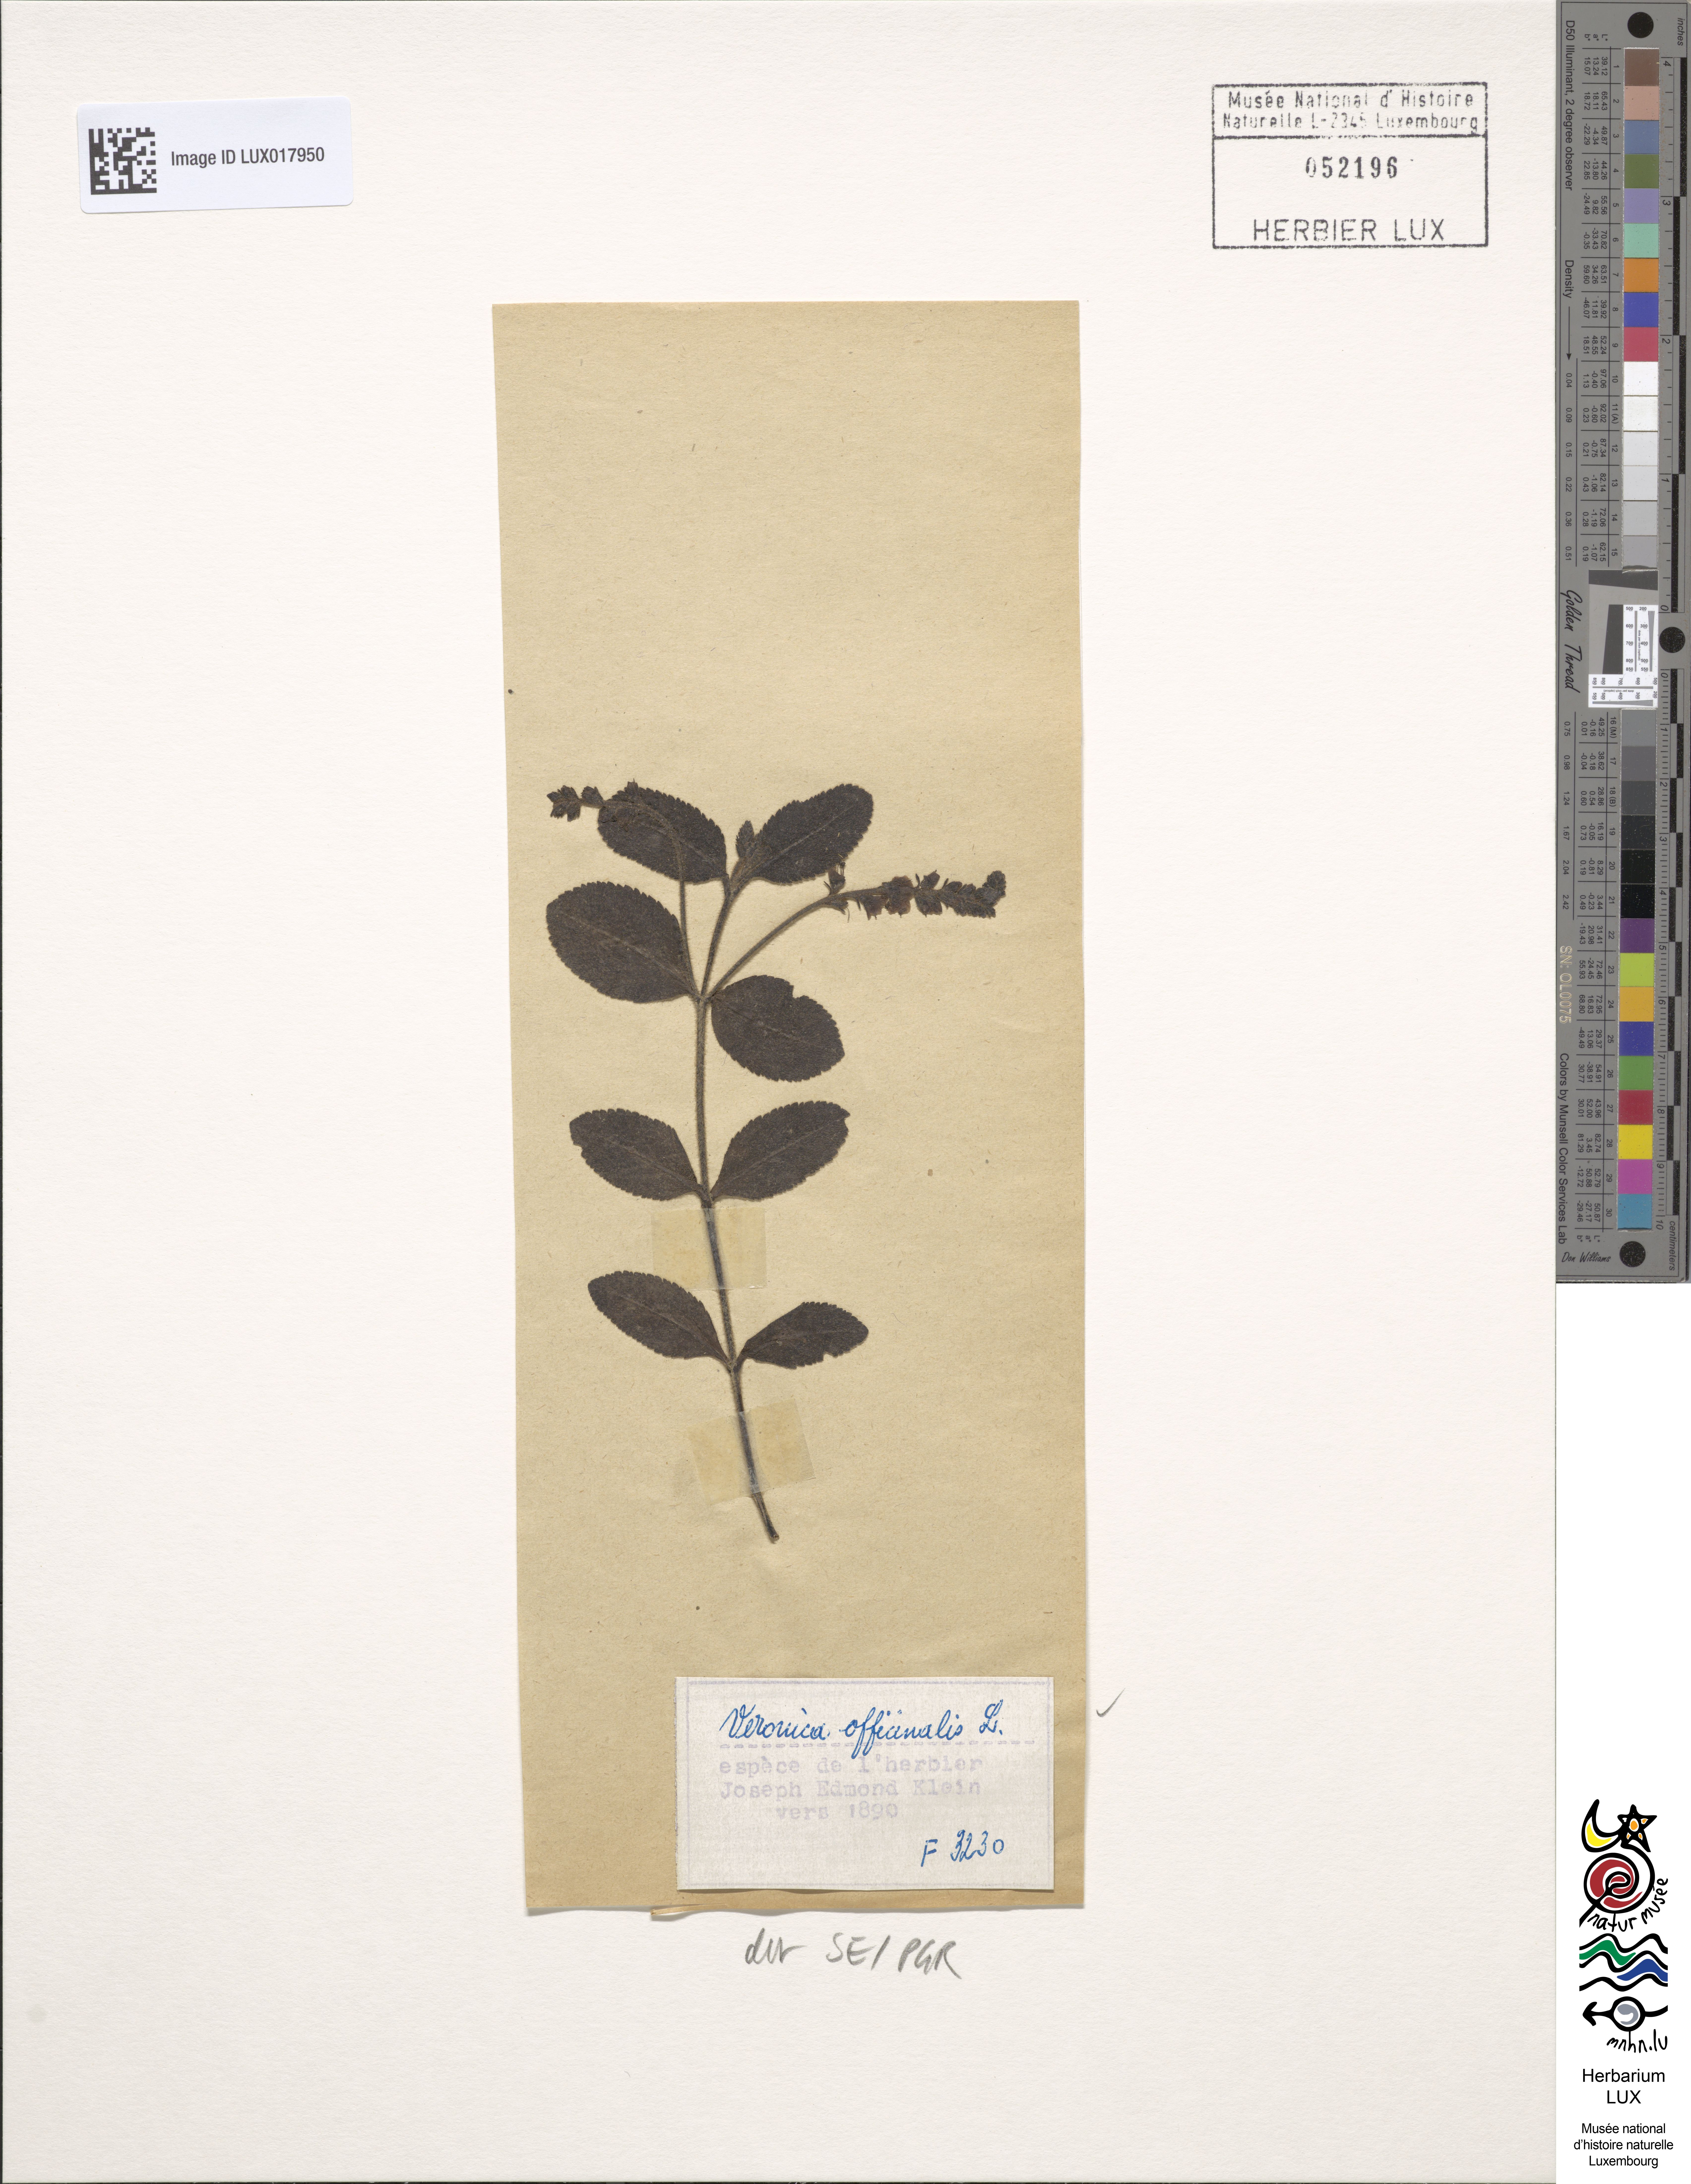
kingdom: Plantae
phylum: Tracheophyta
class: Magnoliopsida
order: Lamiales
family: Plantaginaceae
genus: Veronica
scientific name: Veronica officinalis
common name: Common speedwell
